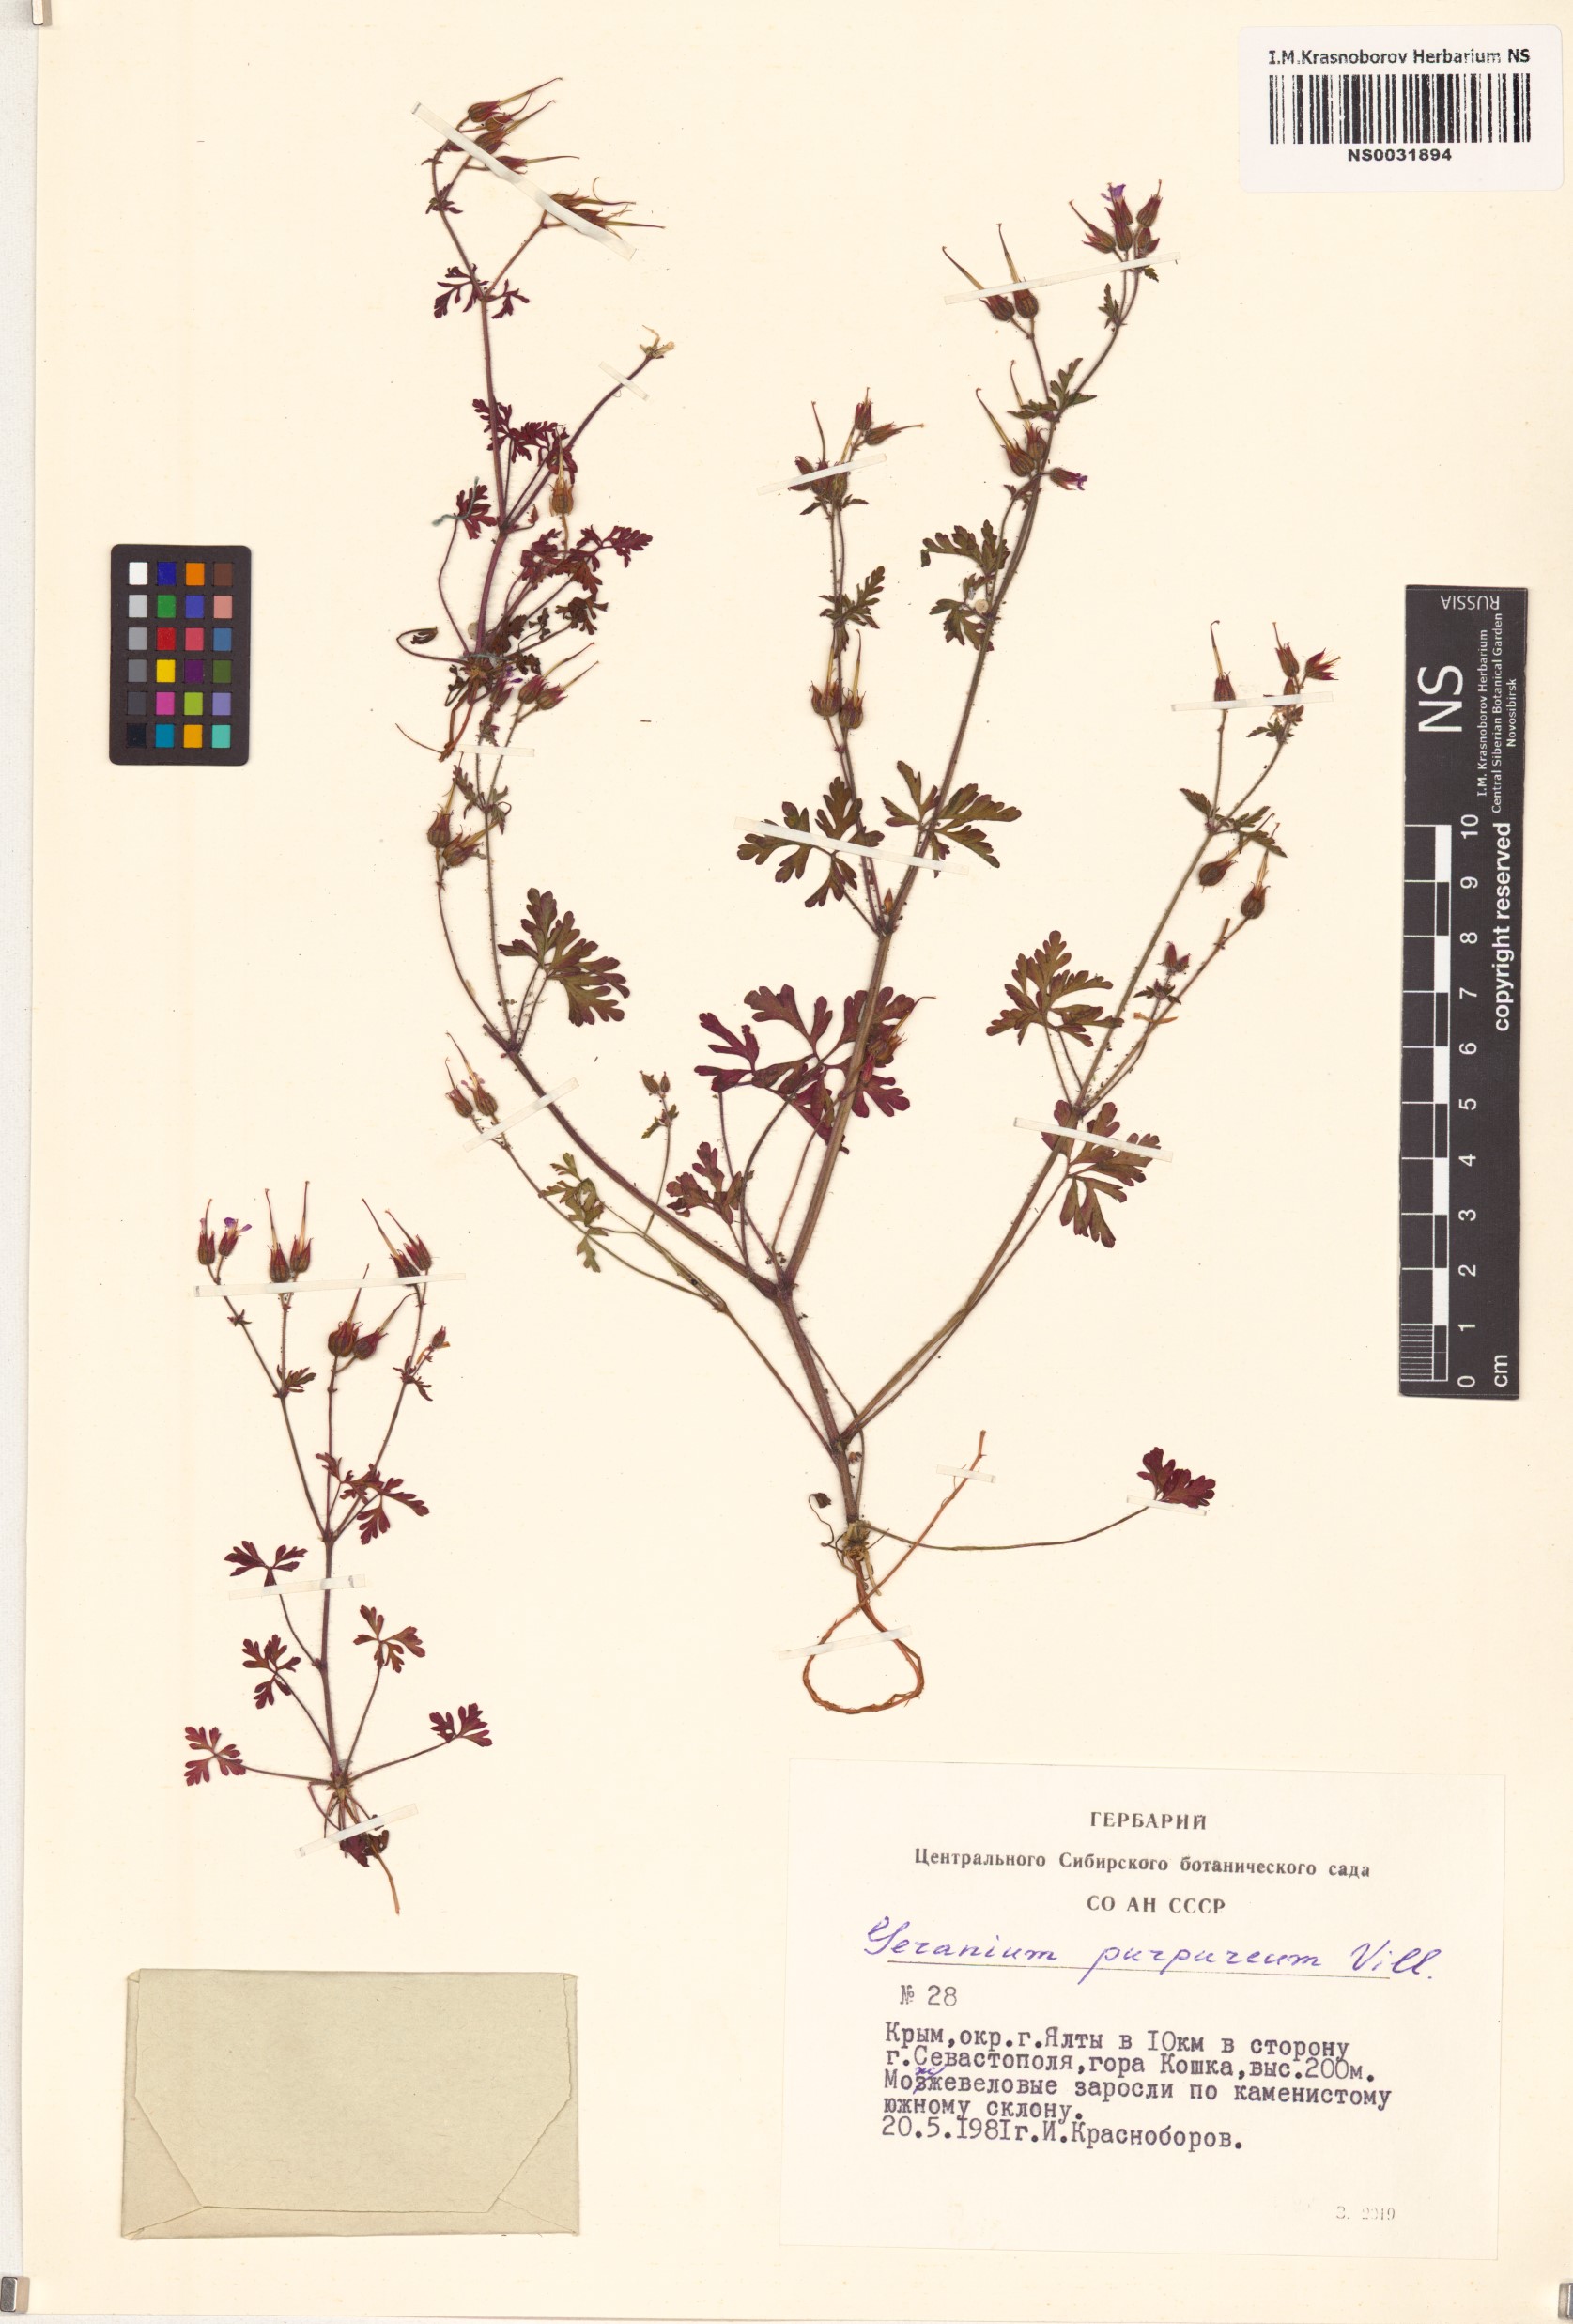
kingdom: Plantae
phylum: Tracheophyta
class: Magnoliopsida
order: Geraniales
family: Geraniaceae
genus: Geranium
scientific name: Geranium purpureum
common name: Little-robin
